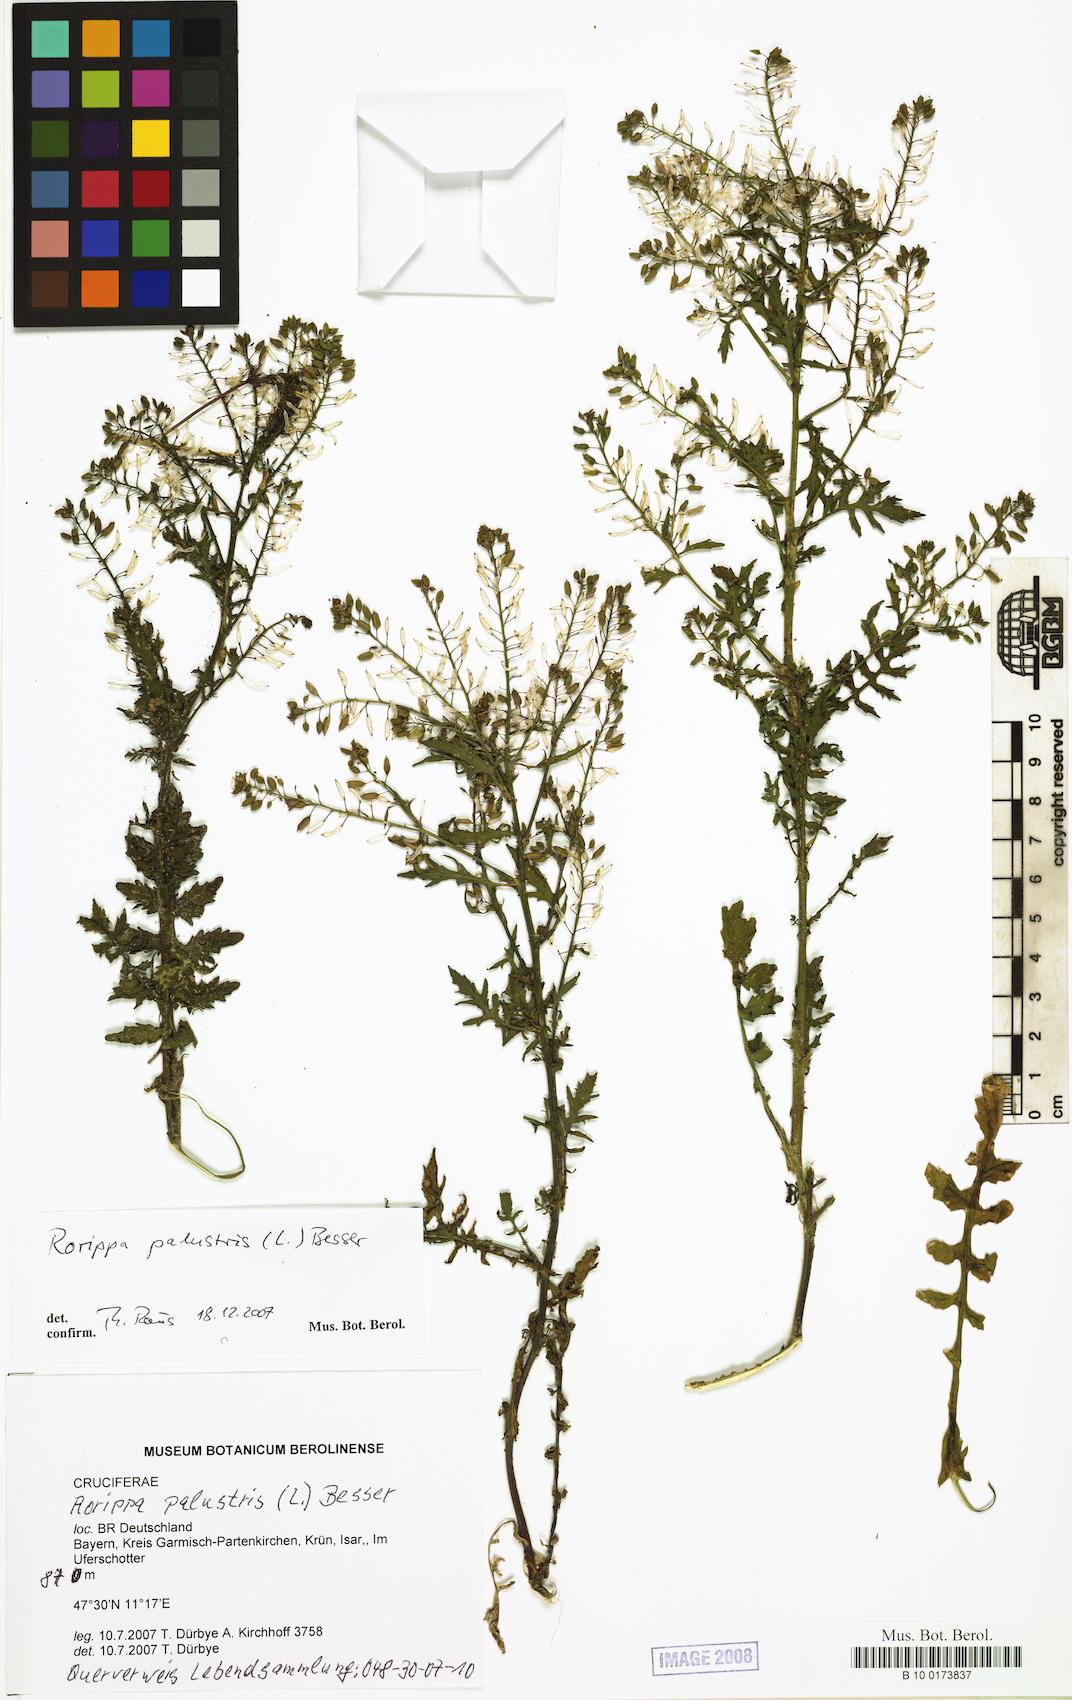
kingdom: Plantae
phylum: Tracheophyta
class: Magnoliopsida
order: Brassicales
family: Brassicaceae
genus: Rorippa
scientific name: Rorippa palustris
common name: Marsh yellow-cress
